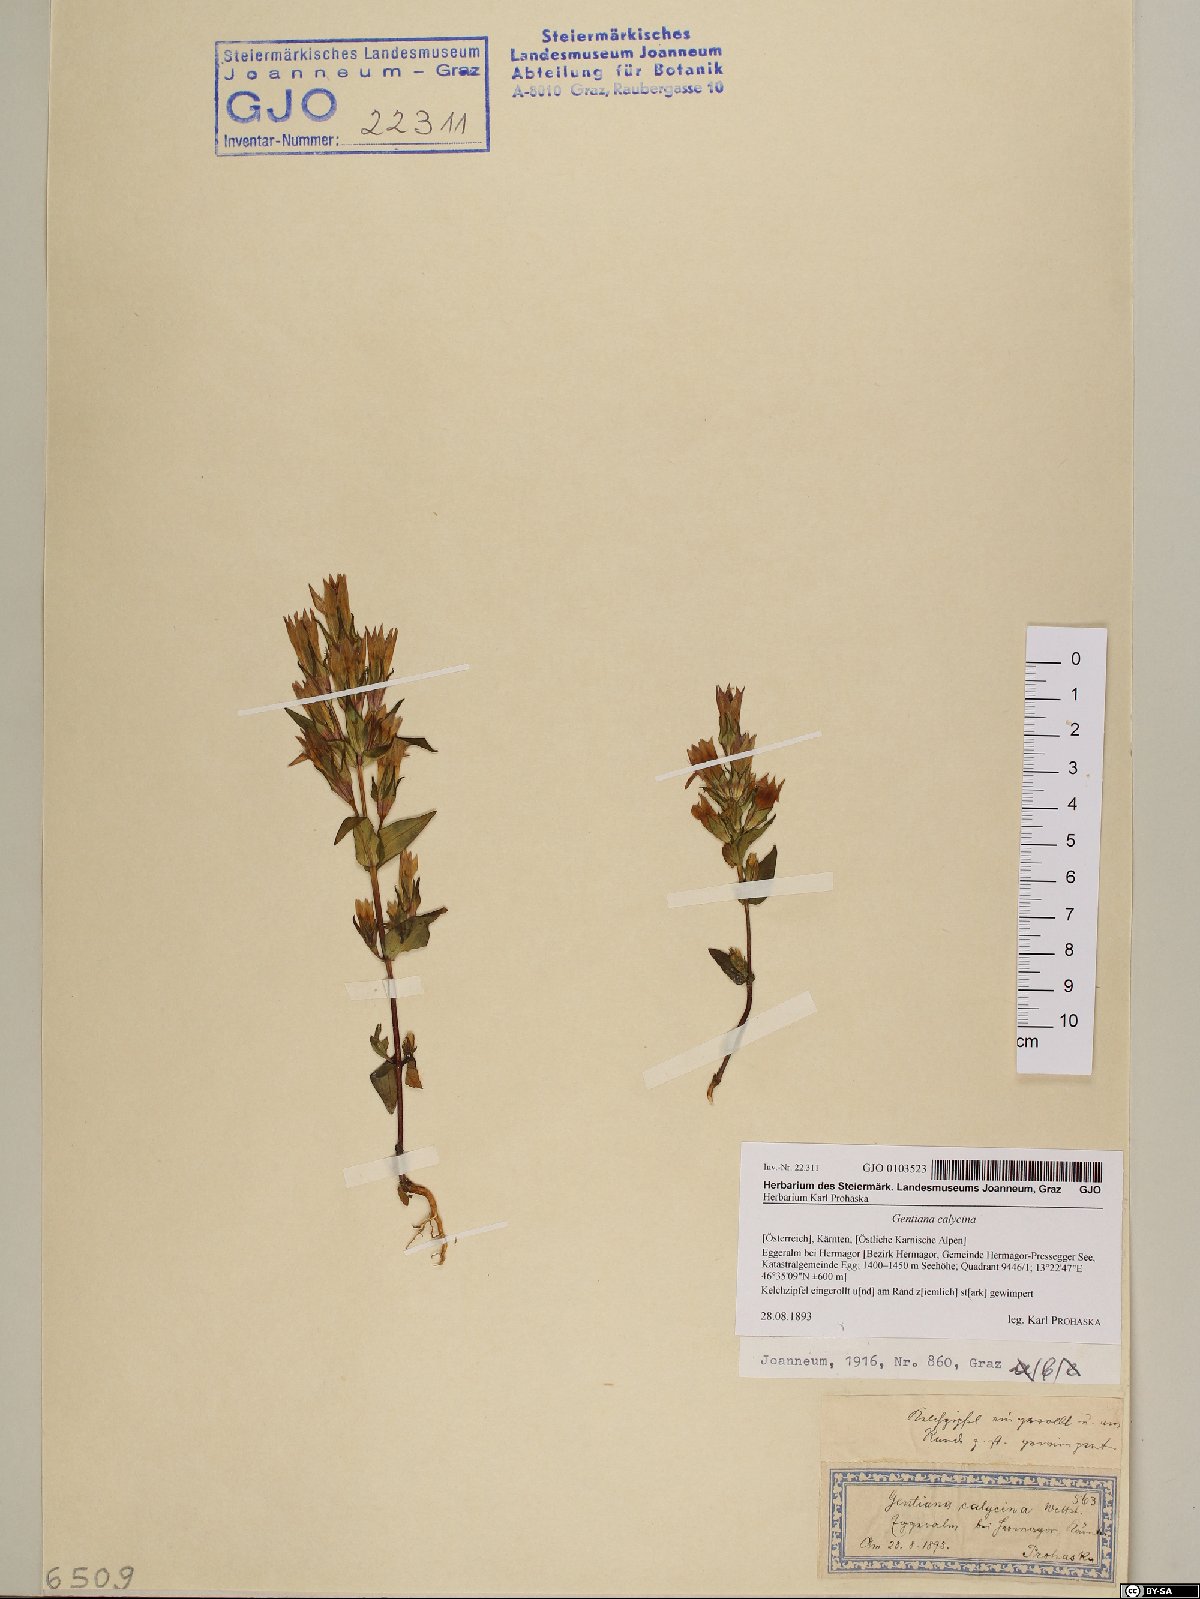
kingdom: Plantae
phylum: Tracheophyta
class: Magnoliopsida
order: Gentianales
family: Gentianaceae
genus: Gentianella
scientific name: Gentianella germanica
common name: Chiltern-gentian
